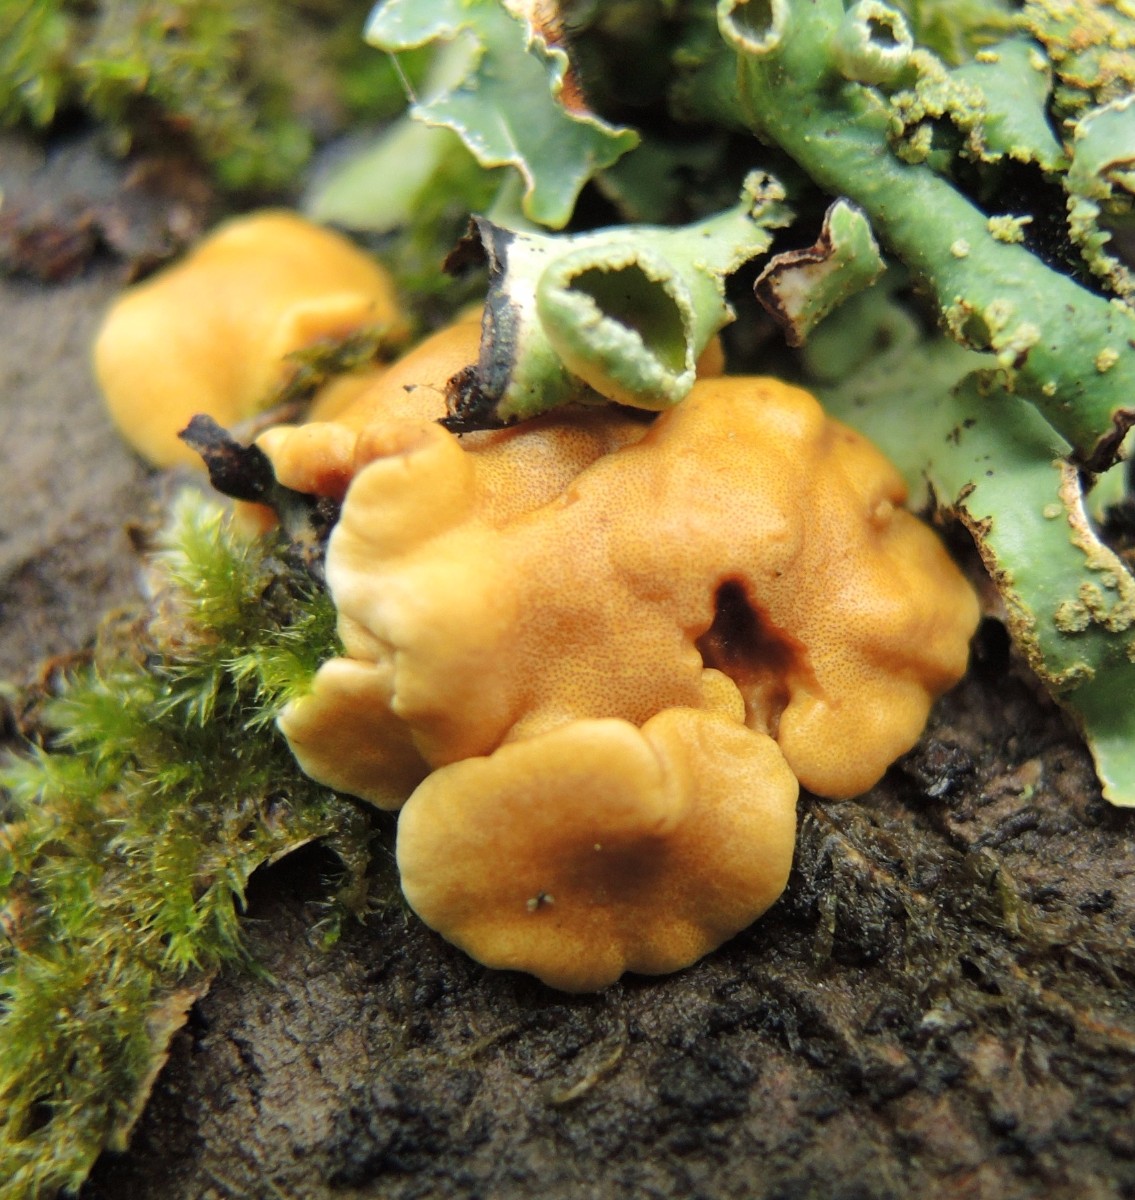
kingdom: Fungi
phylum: Ascomycota
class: Sordariomycetes
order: Hypocreales
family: Hypocreaceae
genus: Trichoderma
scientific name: Trichoderma britdaniae
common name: pilemose-kødkerne
